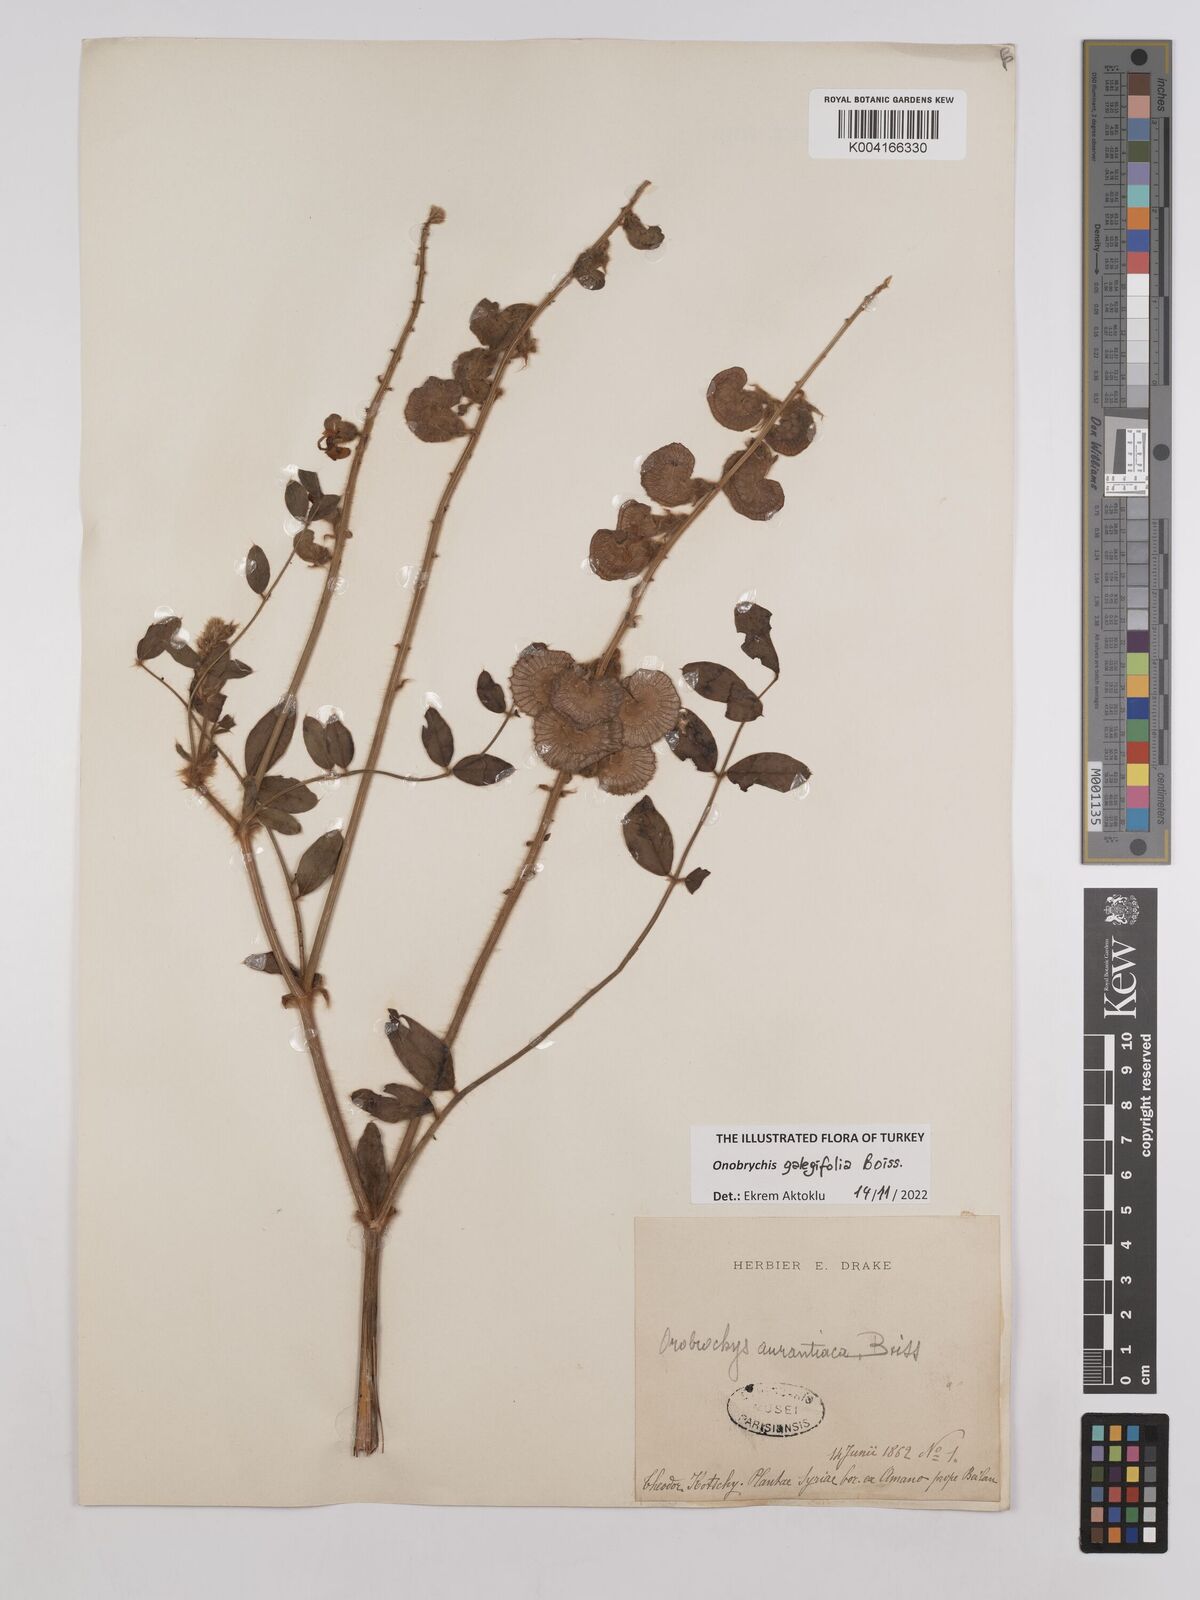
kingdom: Plantae
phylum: Tracheophyta
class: Magnoliopsida
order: Fabales
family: Fabaceae
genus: Onobrychis
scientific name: Onobrychis galegifolia
